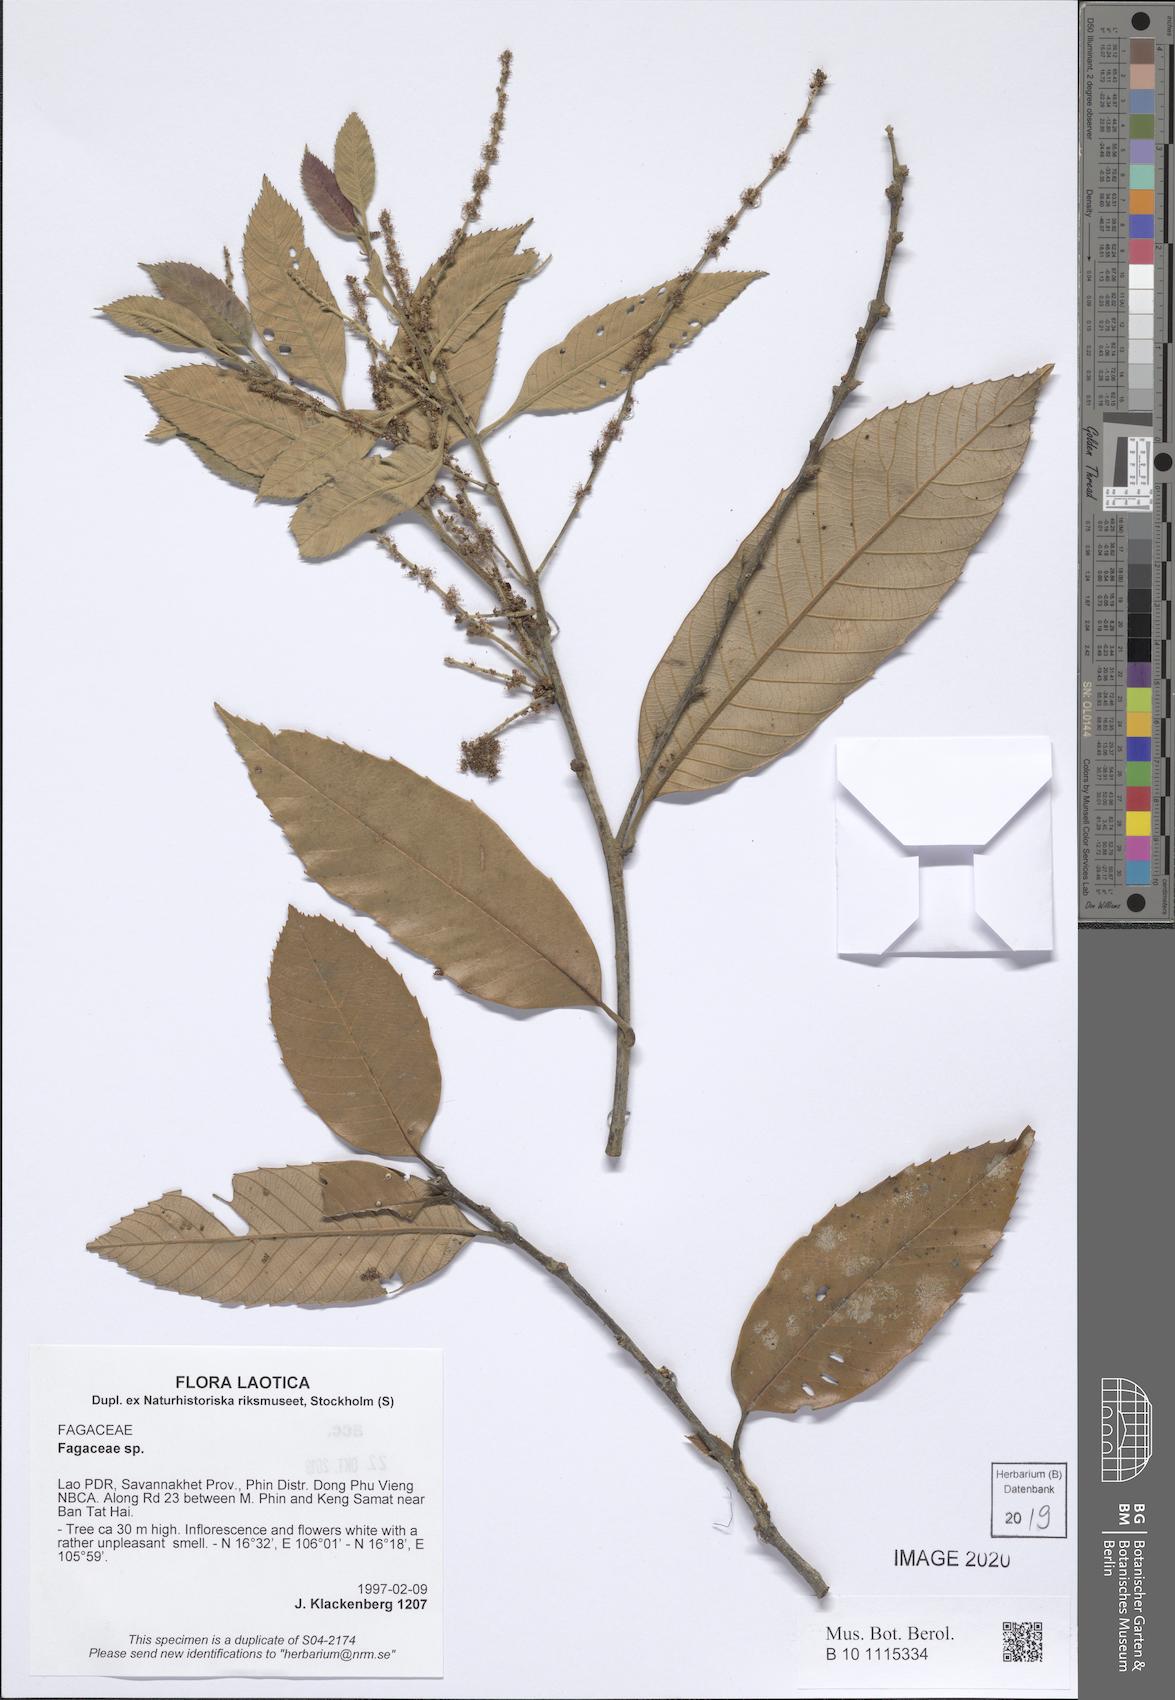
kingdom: Plantae
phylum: Tracheophyta
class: Magnoliopsida
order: Fagales
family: Fagaceae
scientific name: Fagaceae
